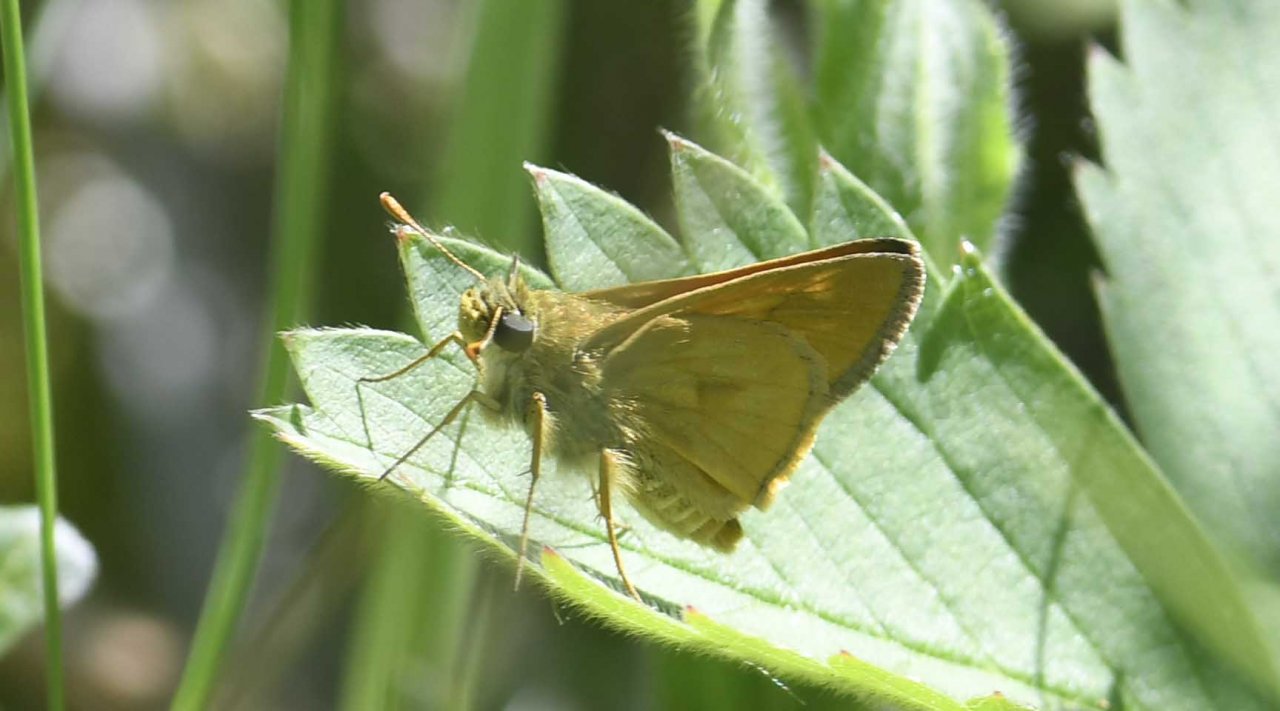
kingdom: Animalia
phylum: Arthropoda
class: Insecta
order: Lepidoptera
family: Hesperiidae
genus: Polites
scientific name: Polites
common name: Long Dash Skipper
